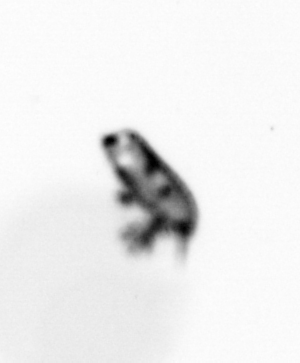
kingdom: Animalia
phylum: Arthropoda
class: Copepoda
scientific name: Copepoda
